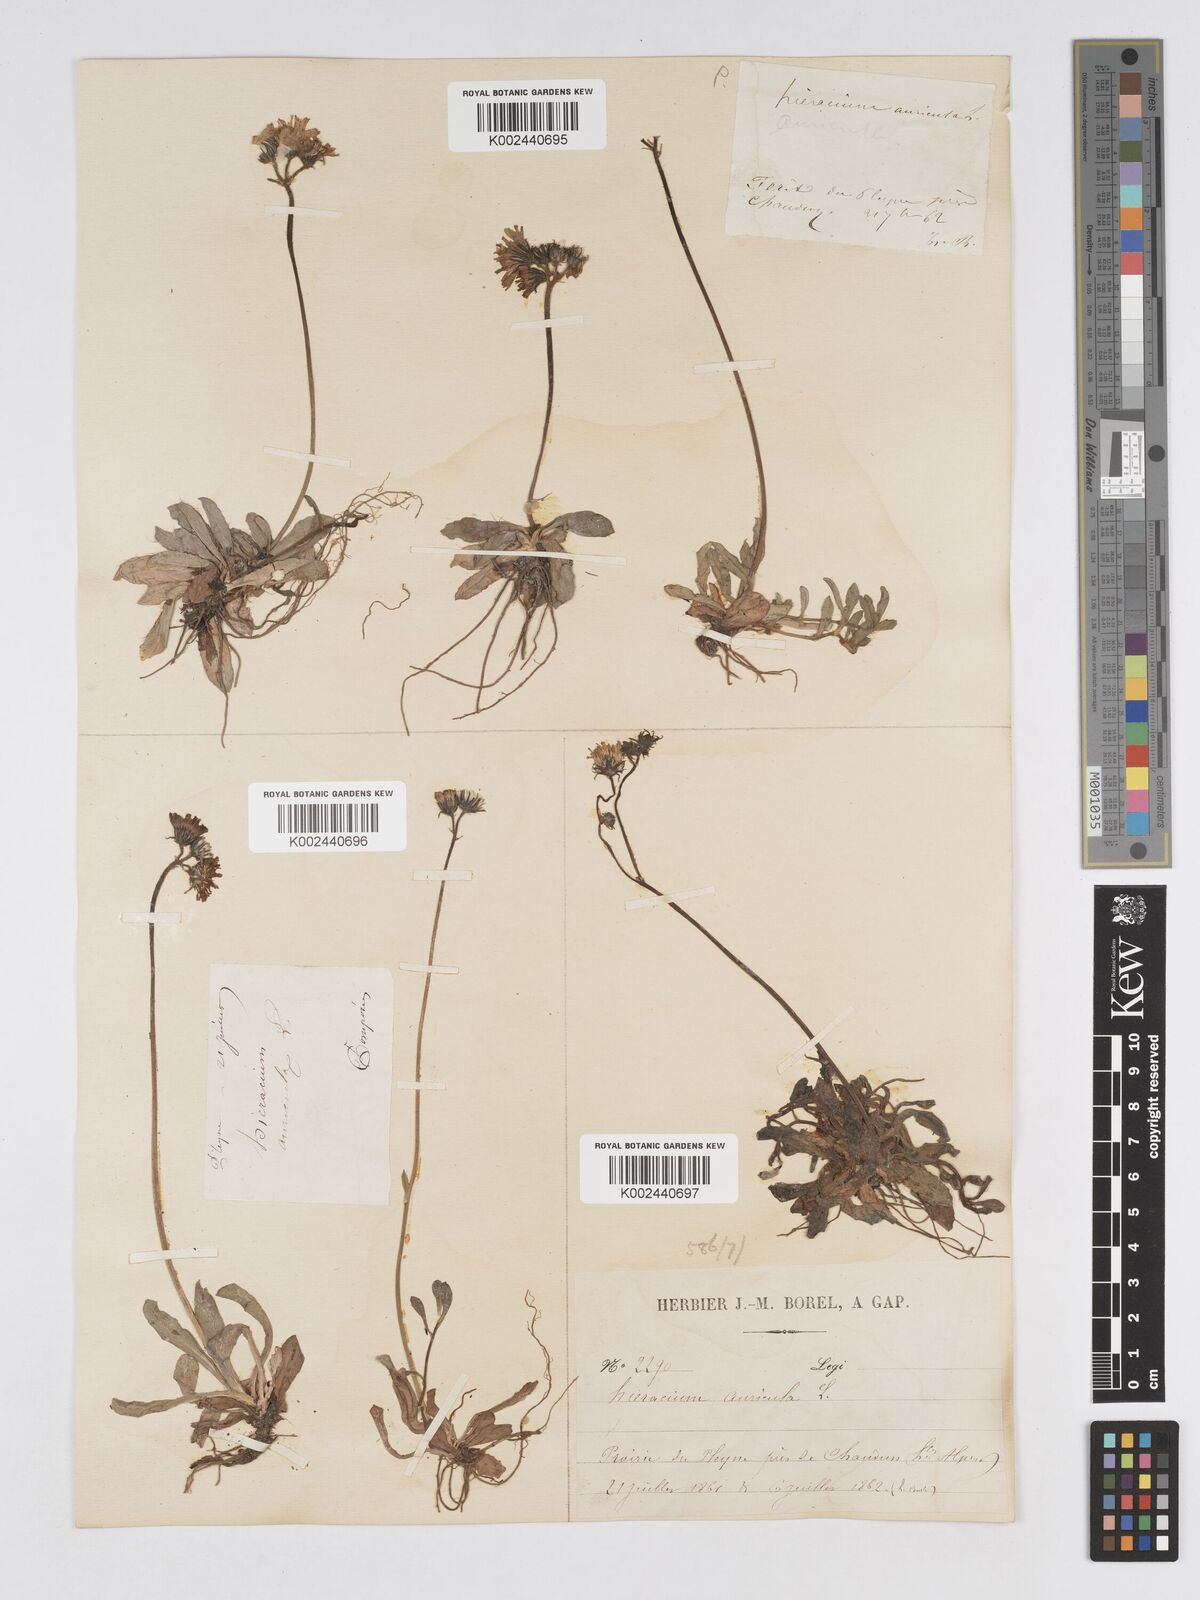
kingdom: Plantae
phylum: Tracheophyta
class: Magnoliopsida
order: Asterales
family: Asteraceae
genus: Pilosella
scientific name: Pilosella floribunda
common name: Glaucous hawkweed
